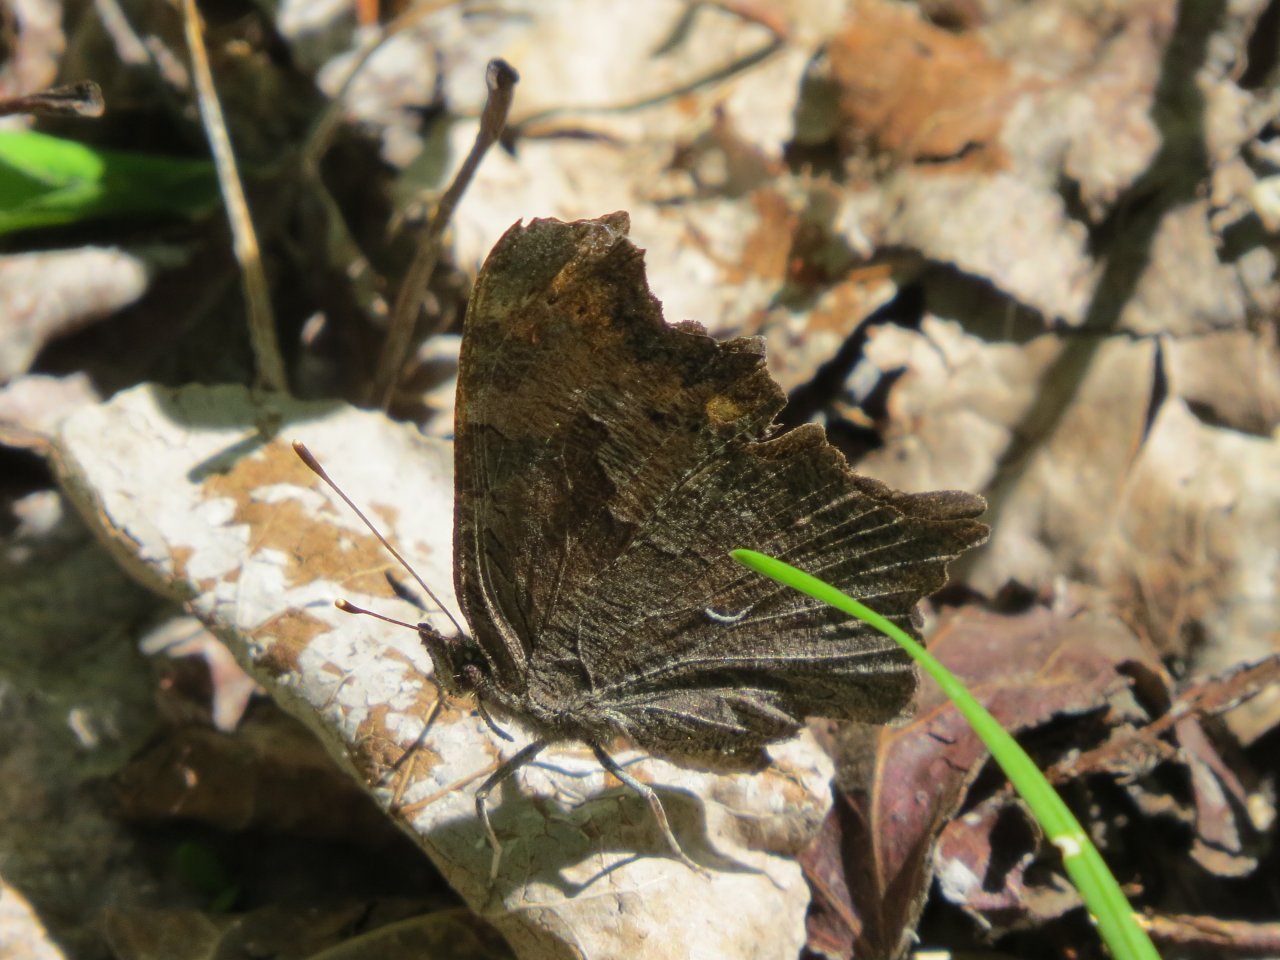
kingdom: Animalia
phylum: Arthropoda
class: Insecta
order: Lepidoptera
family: Nymphalidae
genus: Polygonia
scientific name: Polygonia faunus
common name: Green Comma
